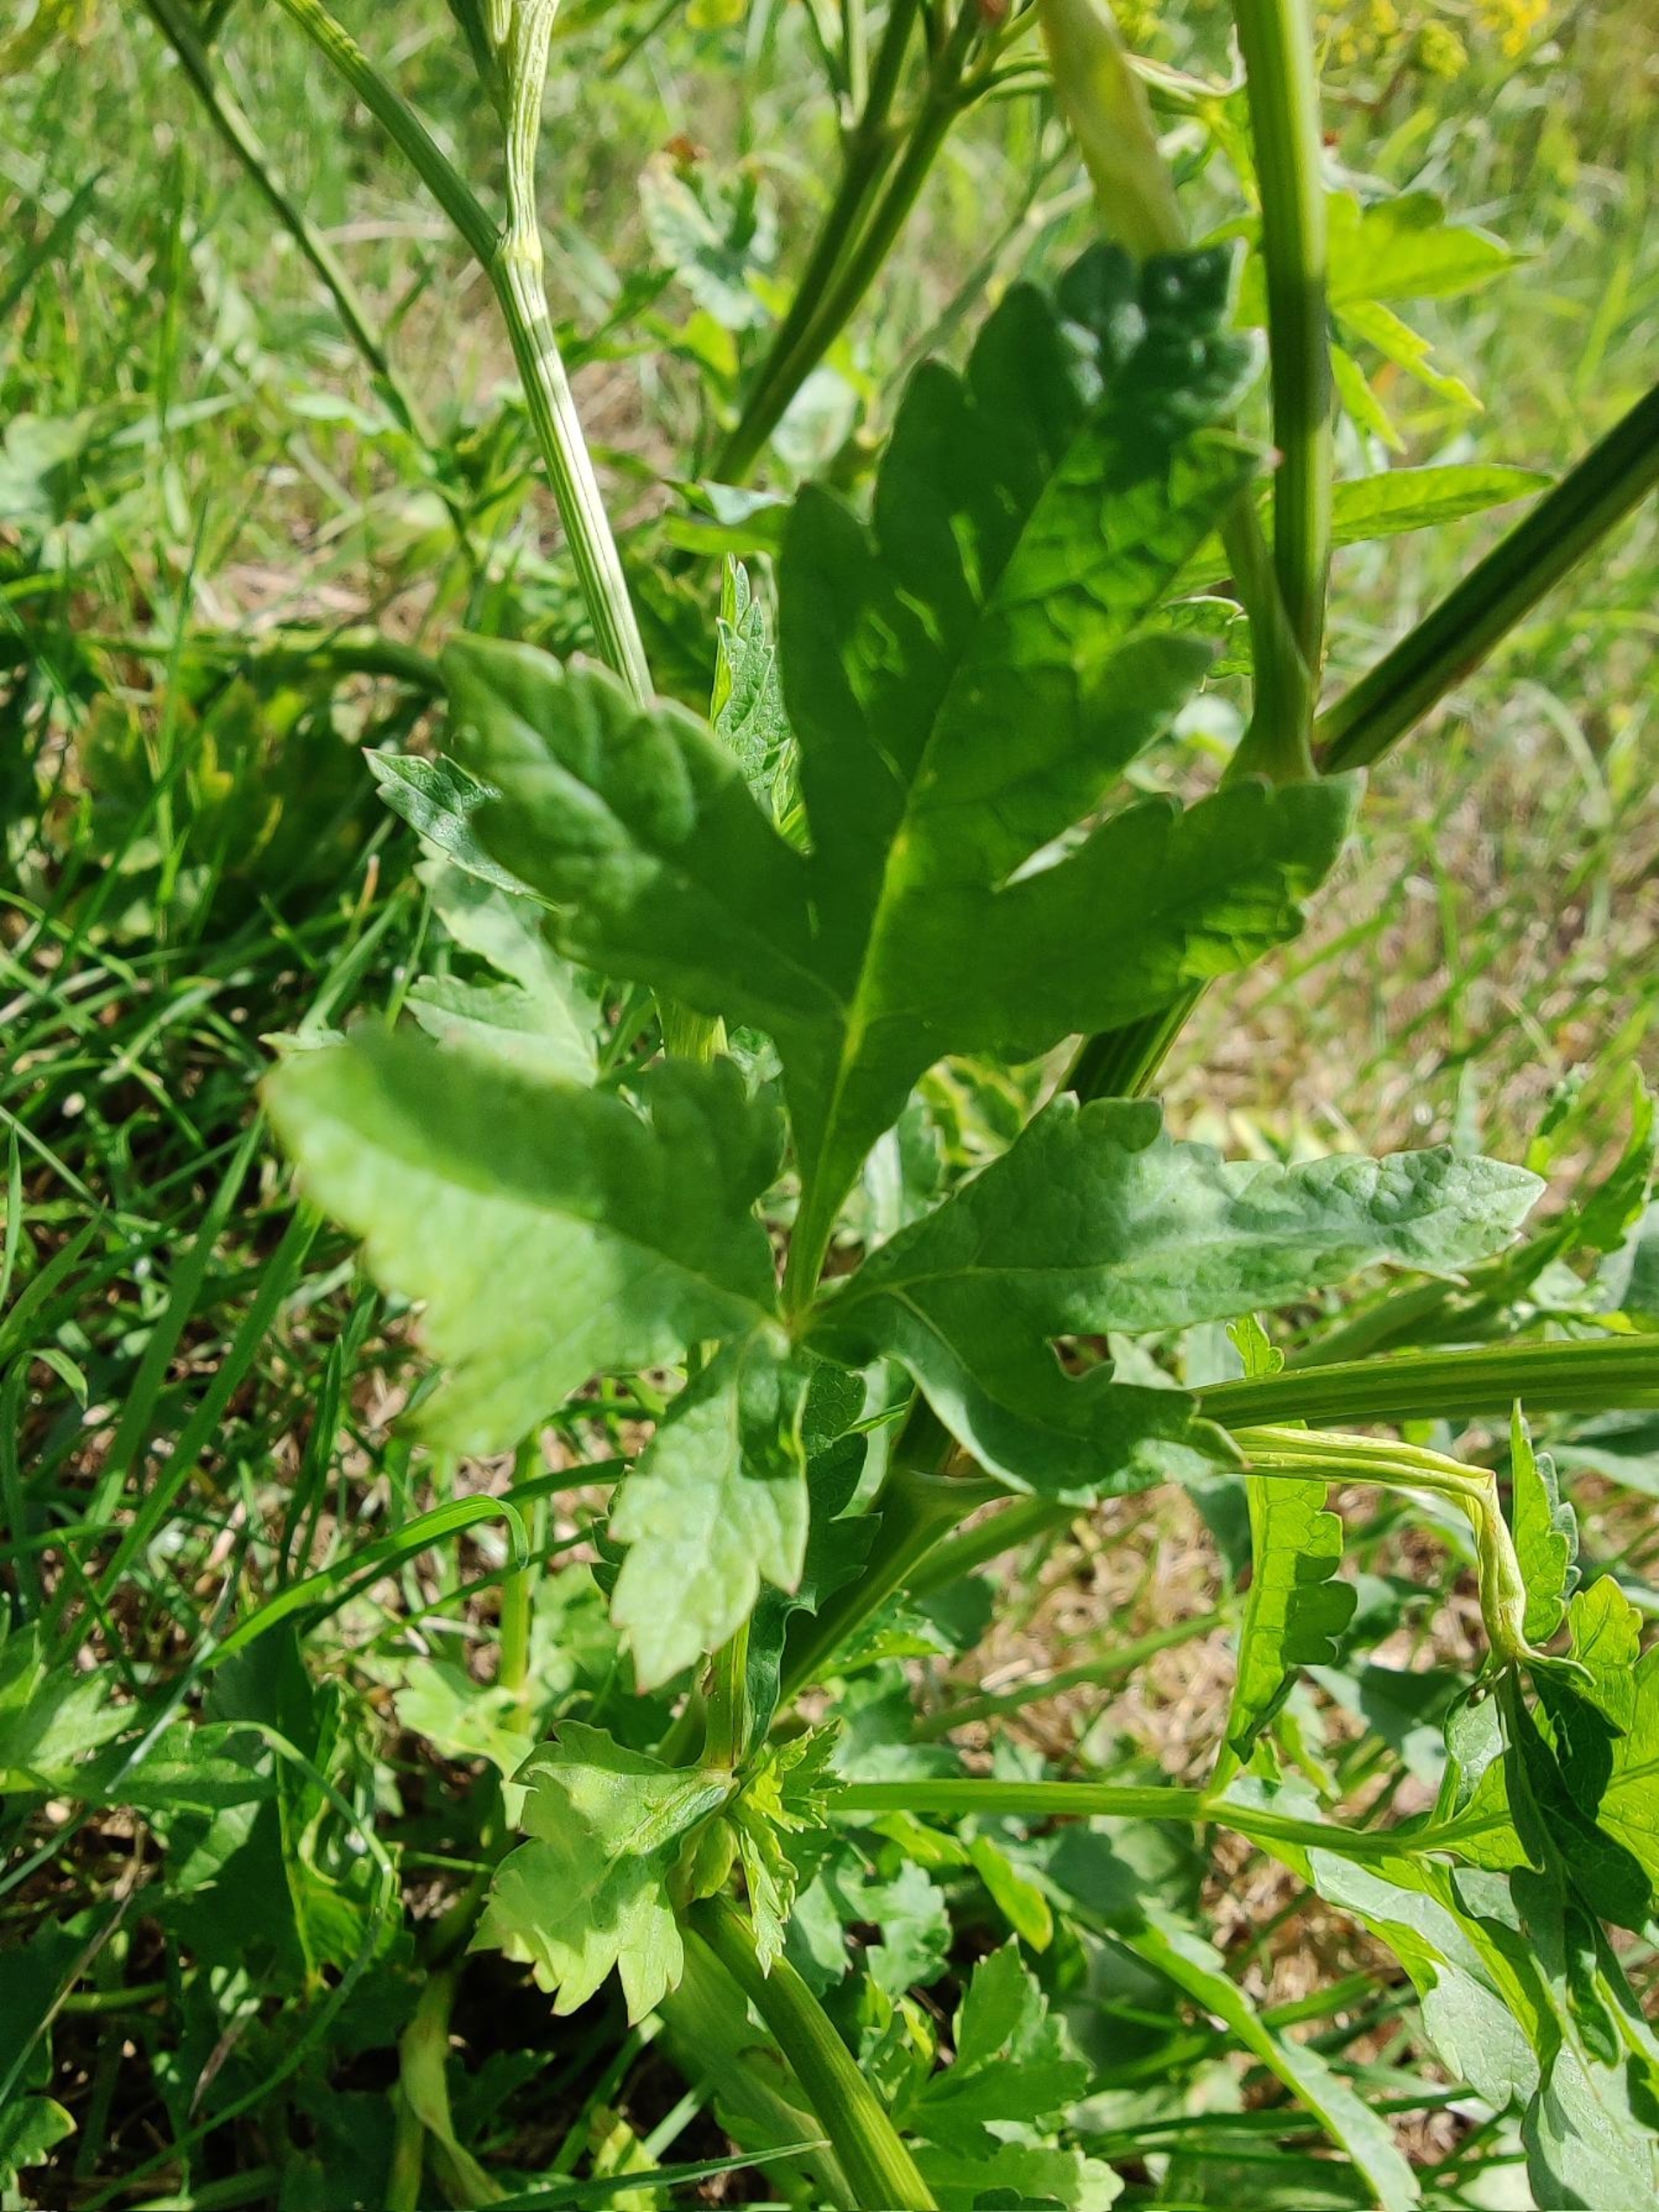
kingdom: Plantae
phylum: Tracheophyta
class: Magnoliopsida
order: Apiales
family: Apiaceae
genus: Pastinaca
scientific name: Pastinaca sativa
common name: Pastinak
